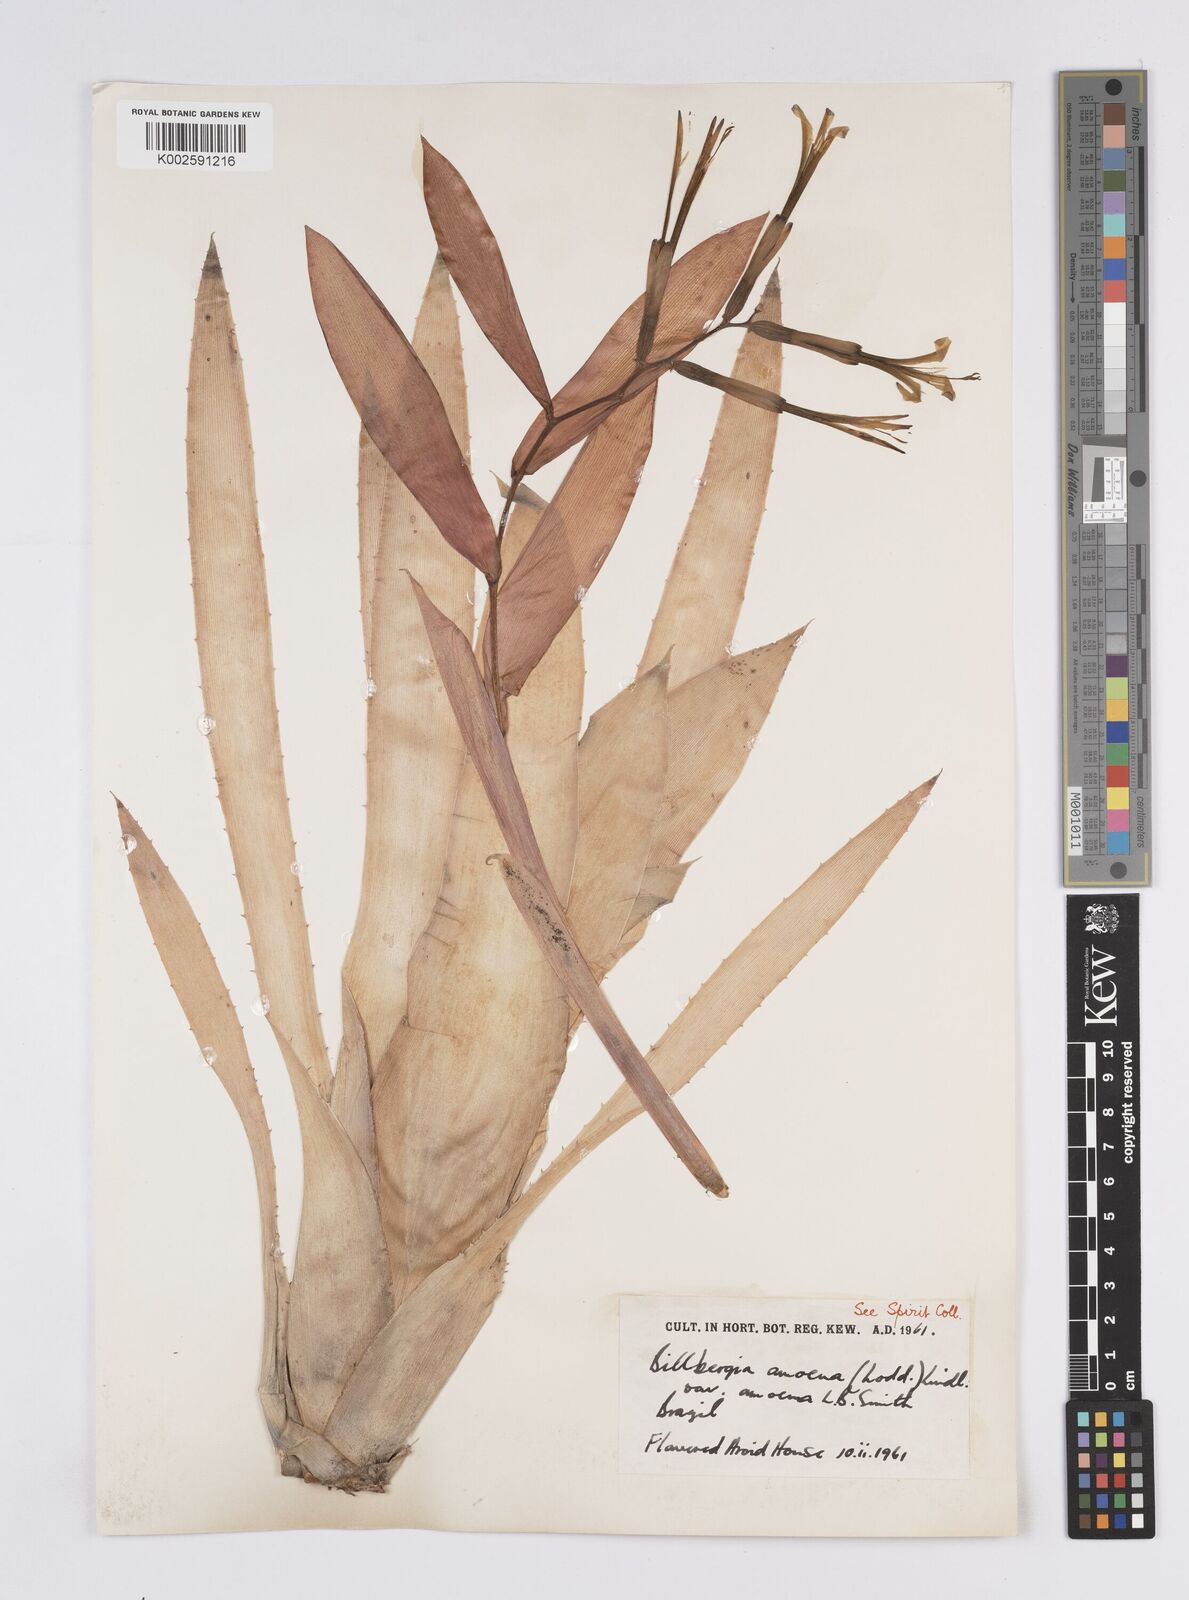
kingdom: Plantae
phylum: Tracheophyta
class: Liliopsida
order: Poales
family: Bromeliaceae
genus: Billbergia
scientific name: Billbergia amoena
